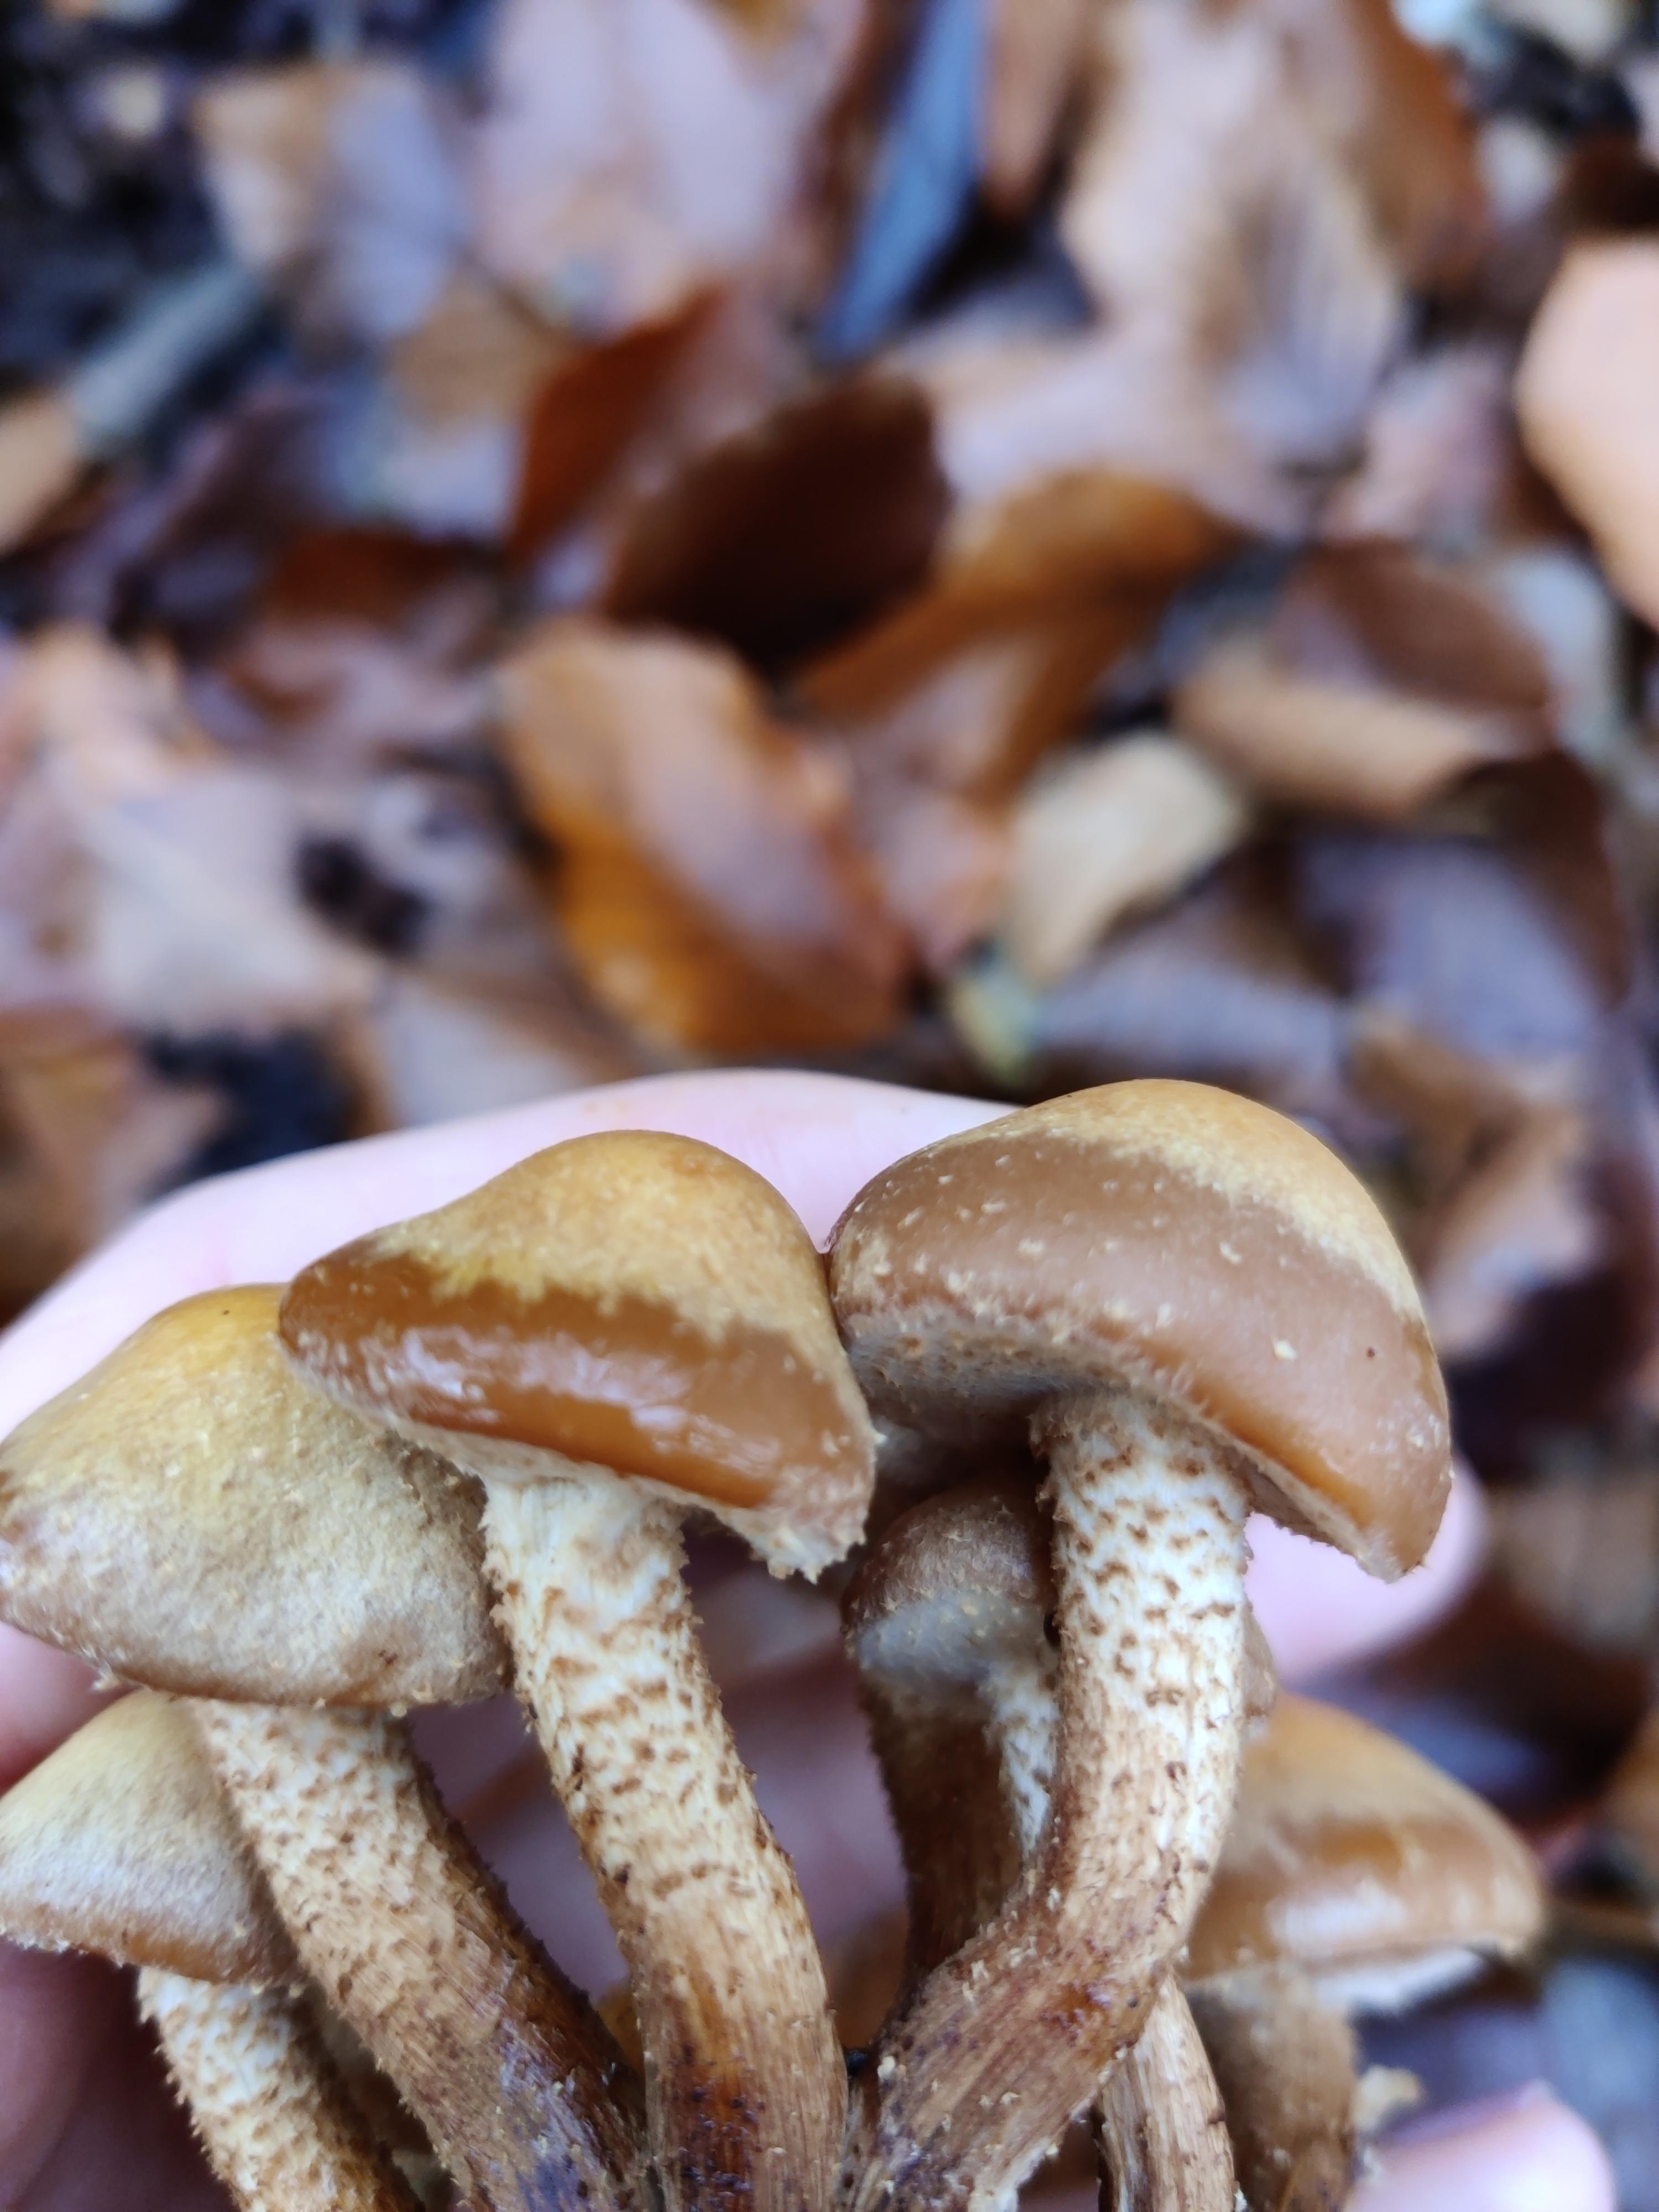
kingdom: Fungi
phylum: Basidiomycota
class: Agaricomycetes
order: Agaricales
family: Strophariaceae
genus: Kuehneromyces
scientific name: Kuehneromyces mutabilis
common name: foranderlig skælhat
